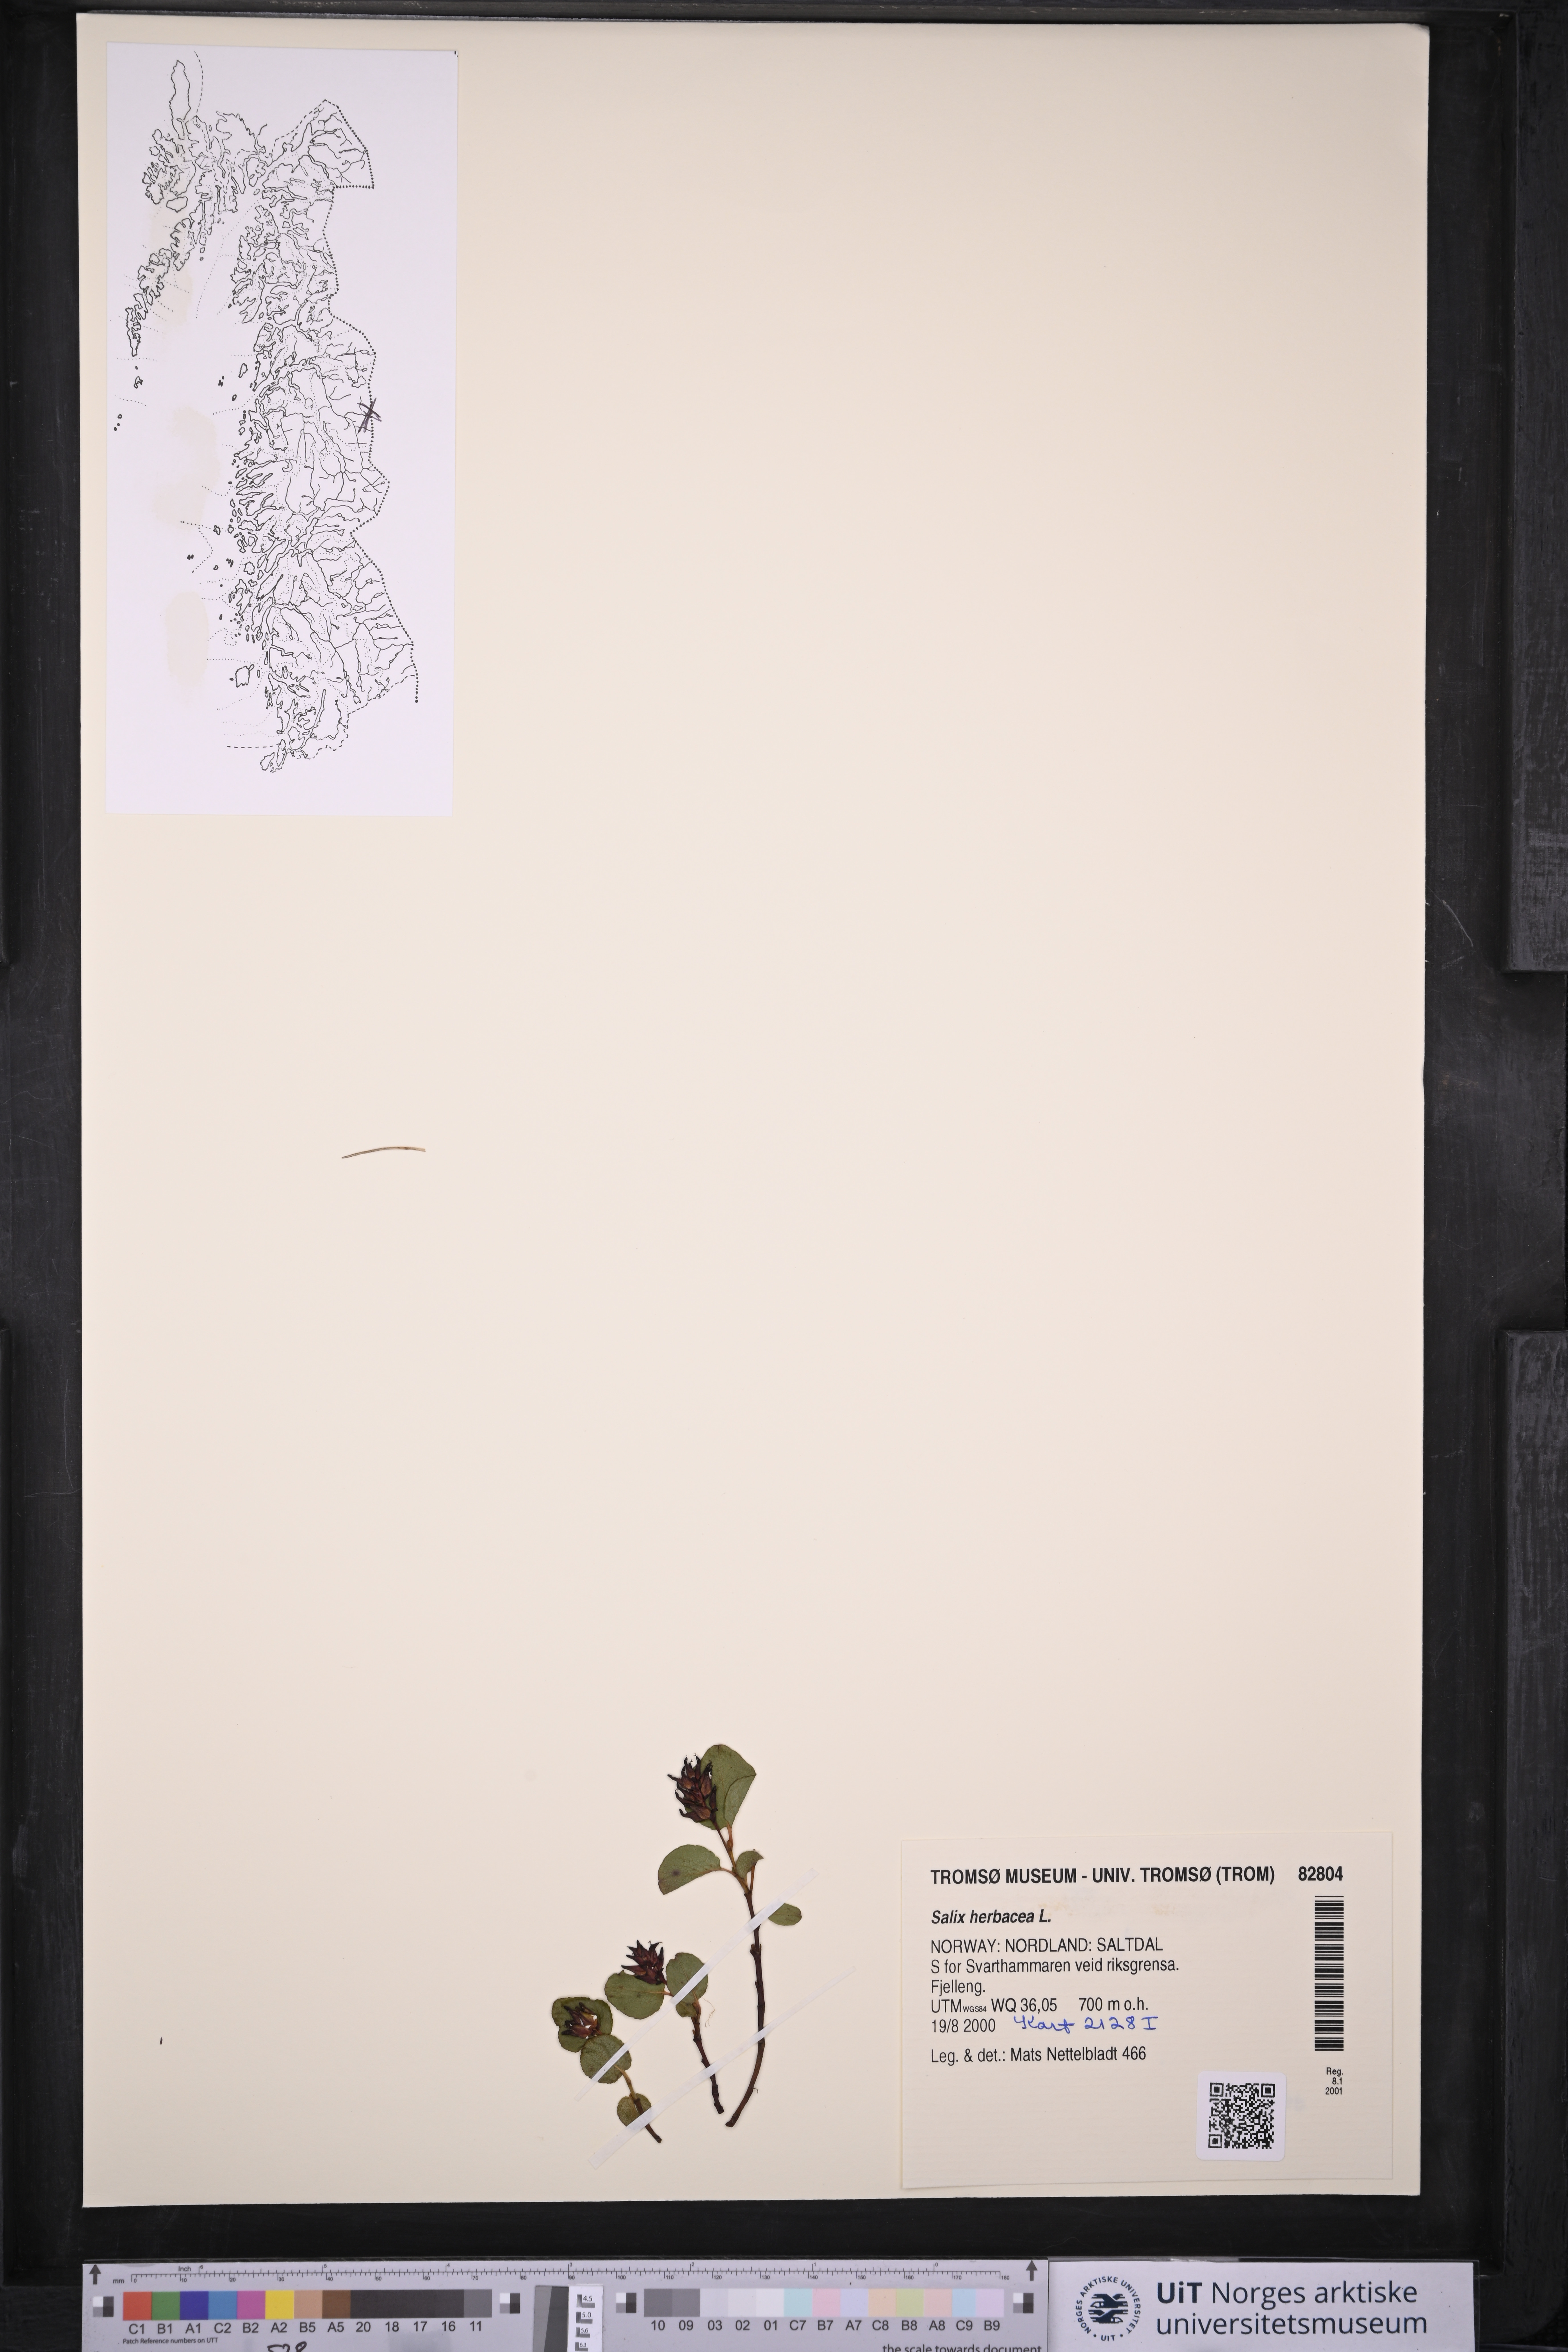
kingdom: Plantae
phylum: Tracheophyta
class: Magnoliopsida
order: Malpighiales
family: Salicaceae
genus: Salix
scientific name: Salix herbacea
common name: Dwarf willow
